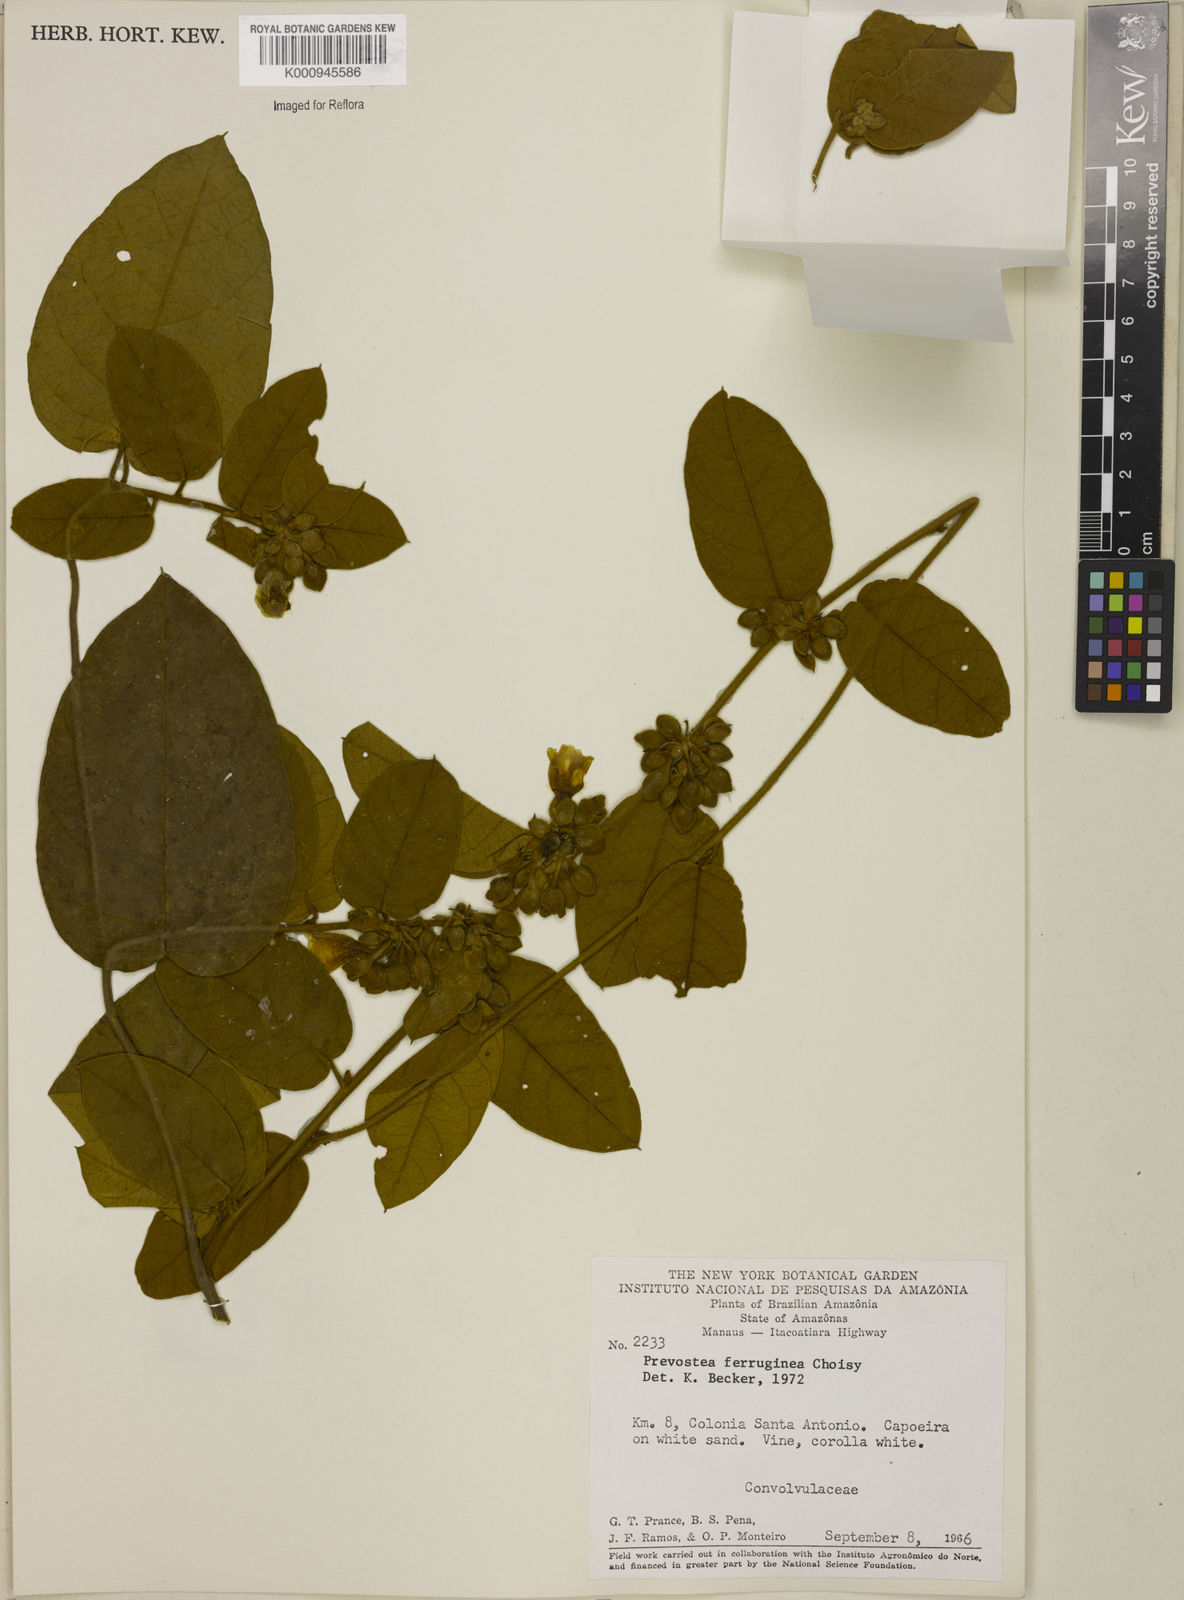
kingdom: Plantae
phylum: Tracheophyta
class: Magnoliopsida
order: Solanales
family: Convolvulaceae
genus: Bonamia
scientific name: Bonamia ferruginea
